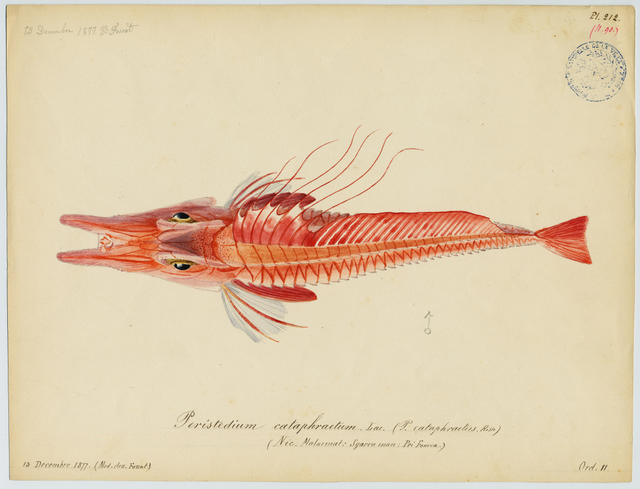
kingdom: Animalia
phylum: Chordata
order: Scorpaeniformes
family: Peristediidae
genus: Peristedion
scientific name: Peristedion cataphractum
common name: Armed gurnard
